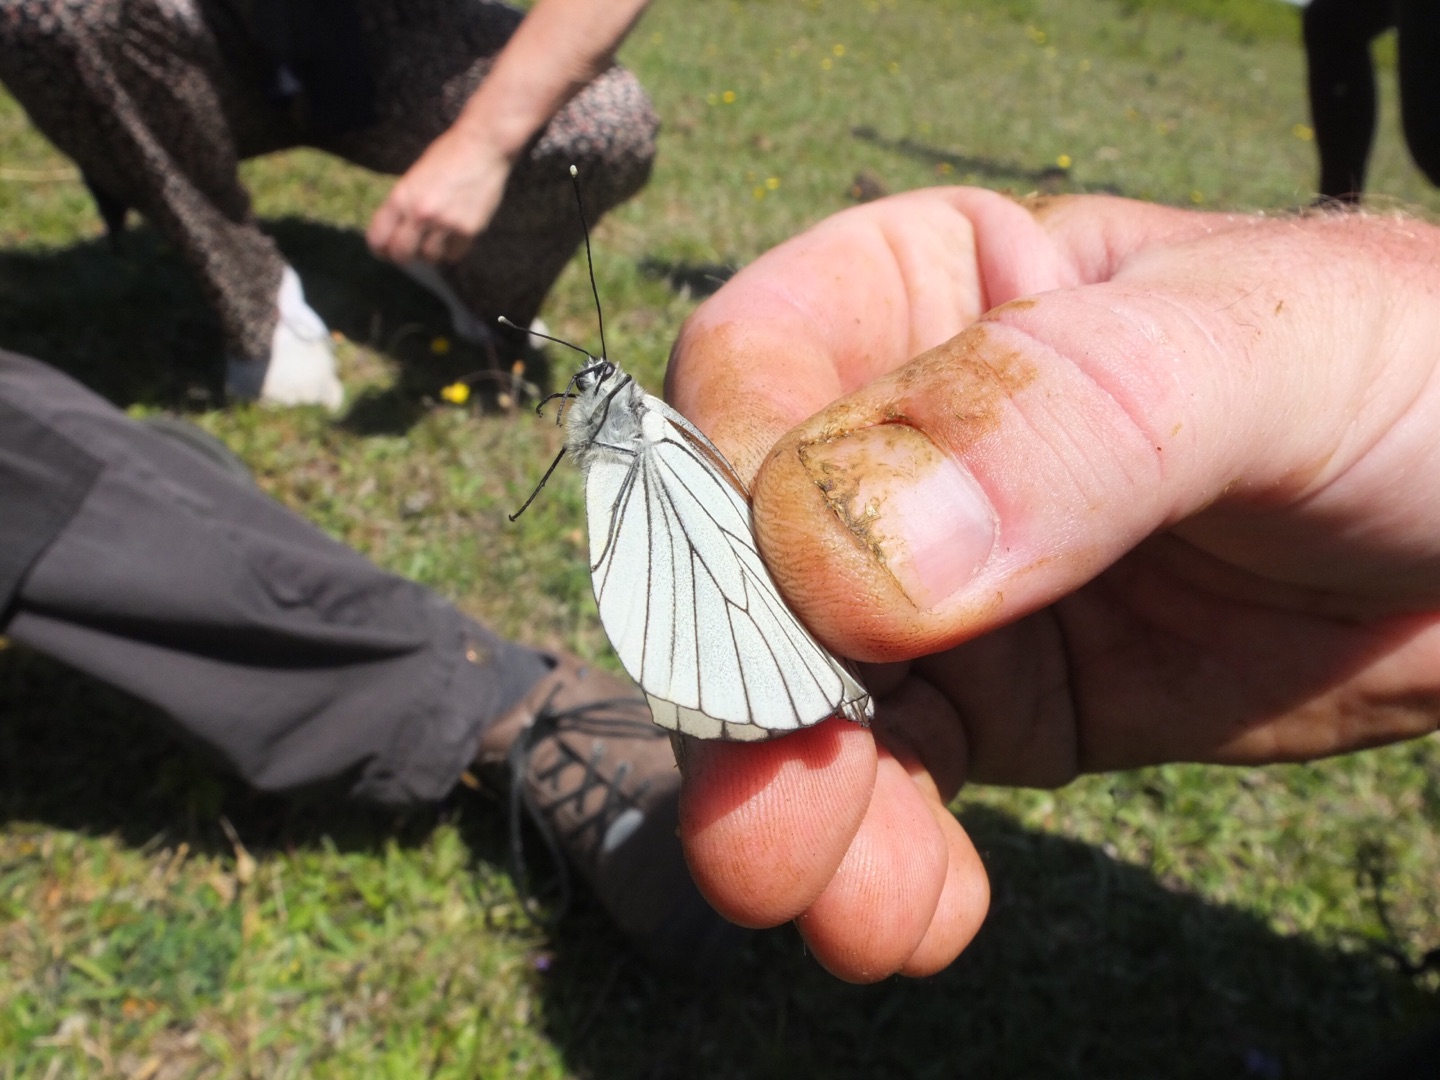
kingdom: Animalia
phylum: Arthropoda
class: Insecta
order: Lepidoptera
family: Pieridae
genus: Aporia
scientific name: Aporia crataegi
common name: Sortåret hvidvinge
